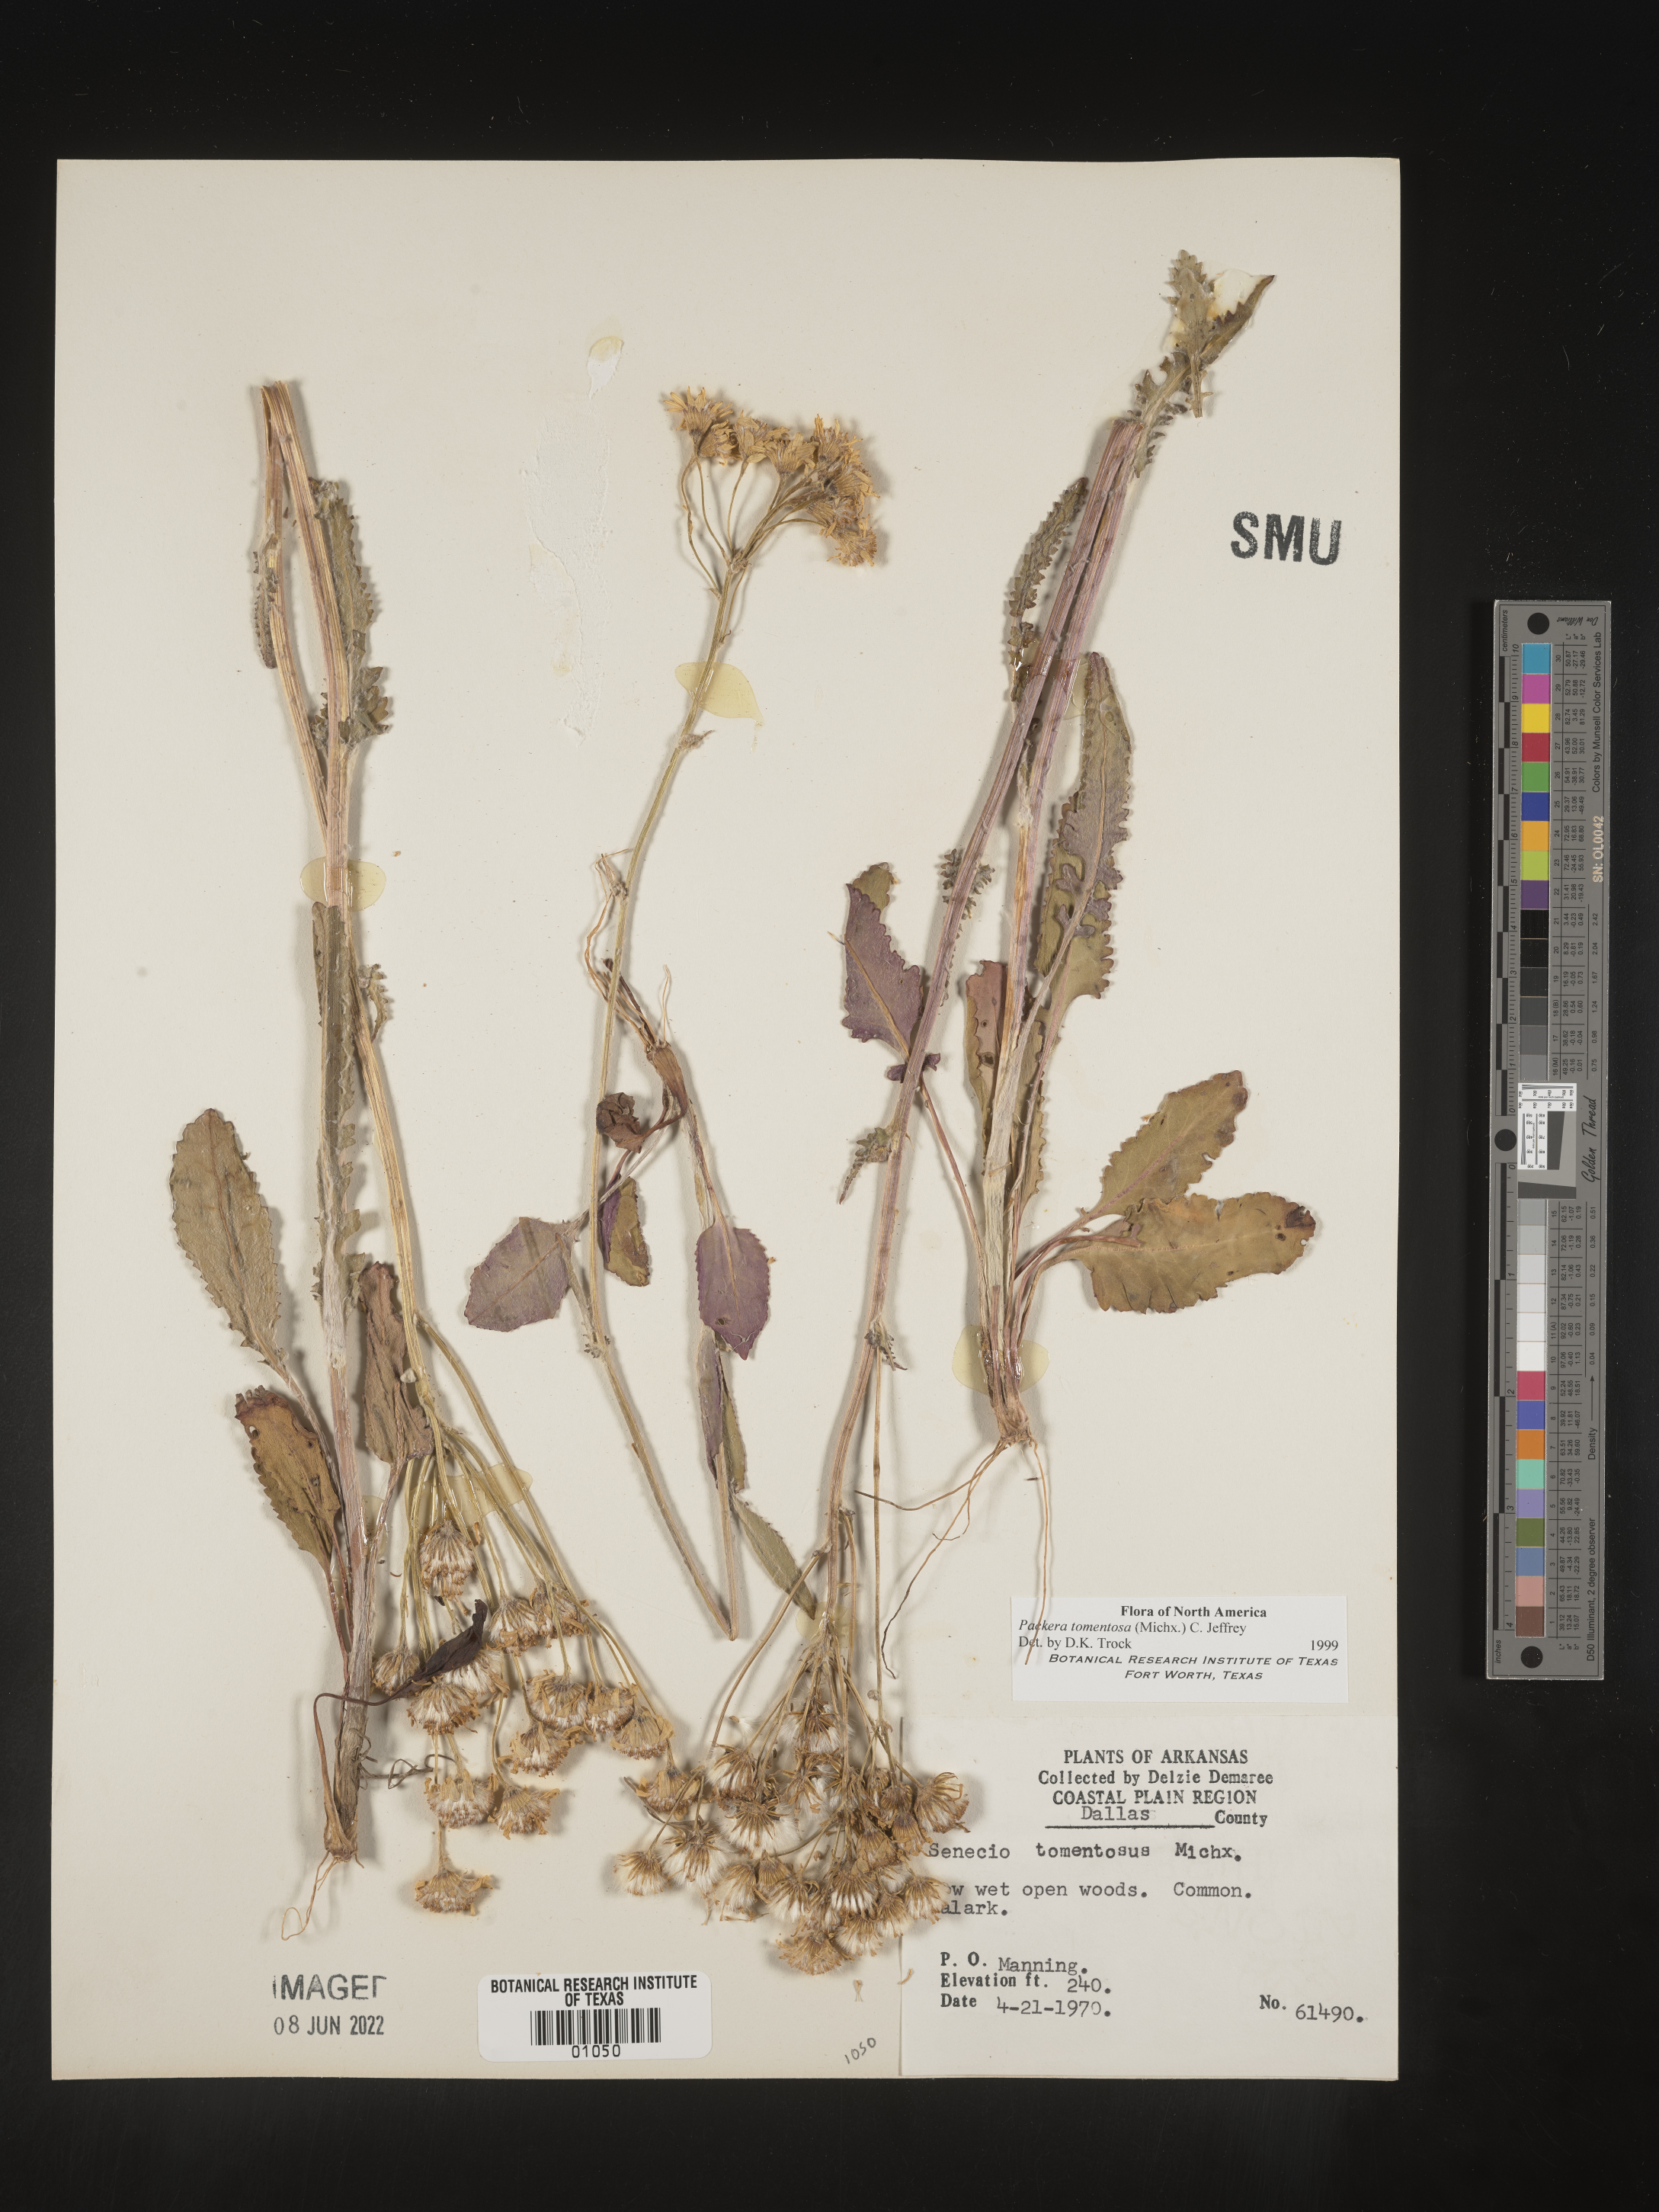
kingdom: Plantae
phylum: Tracheophyta
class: Magnoliopsida
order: Asterales
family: Asteraceae
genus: Packera
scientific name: Packera dubia
